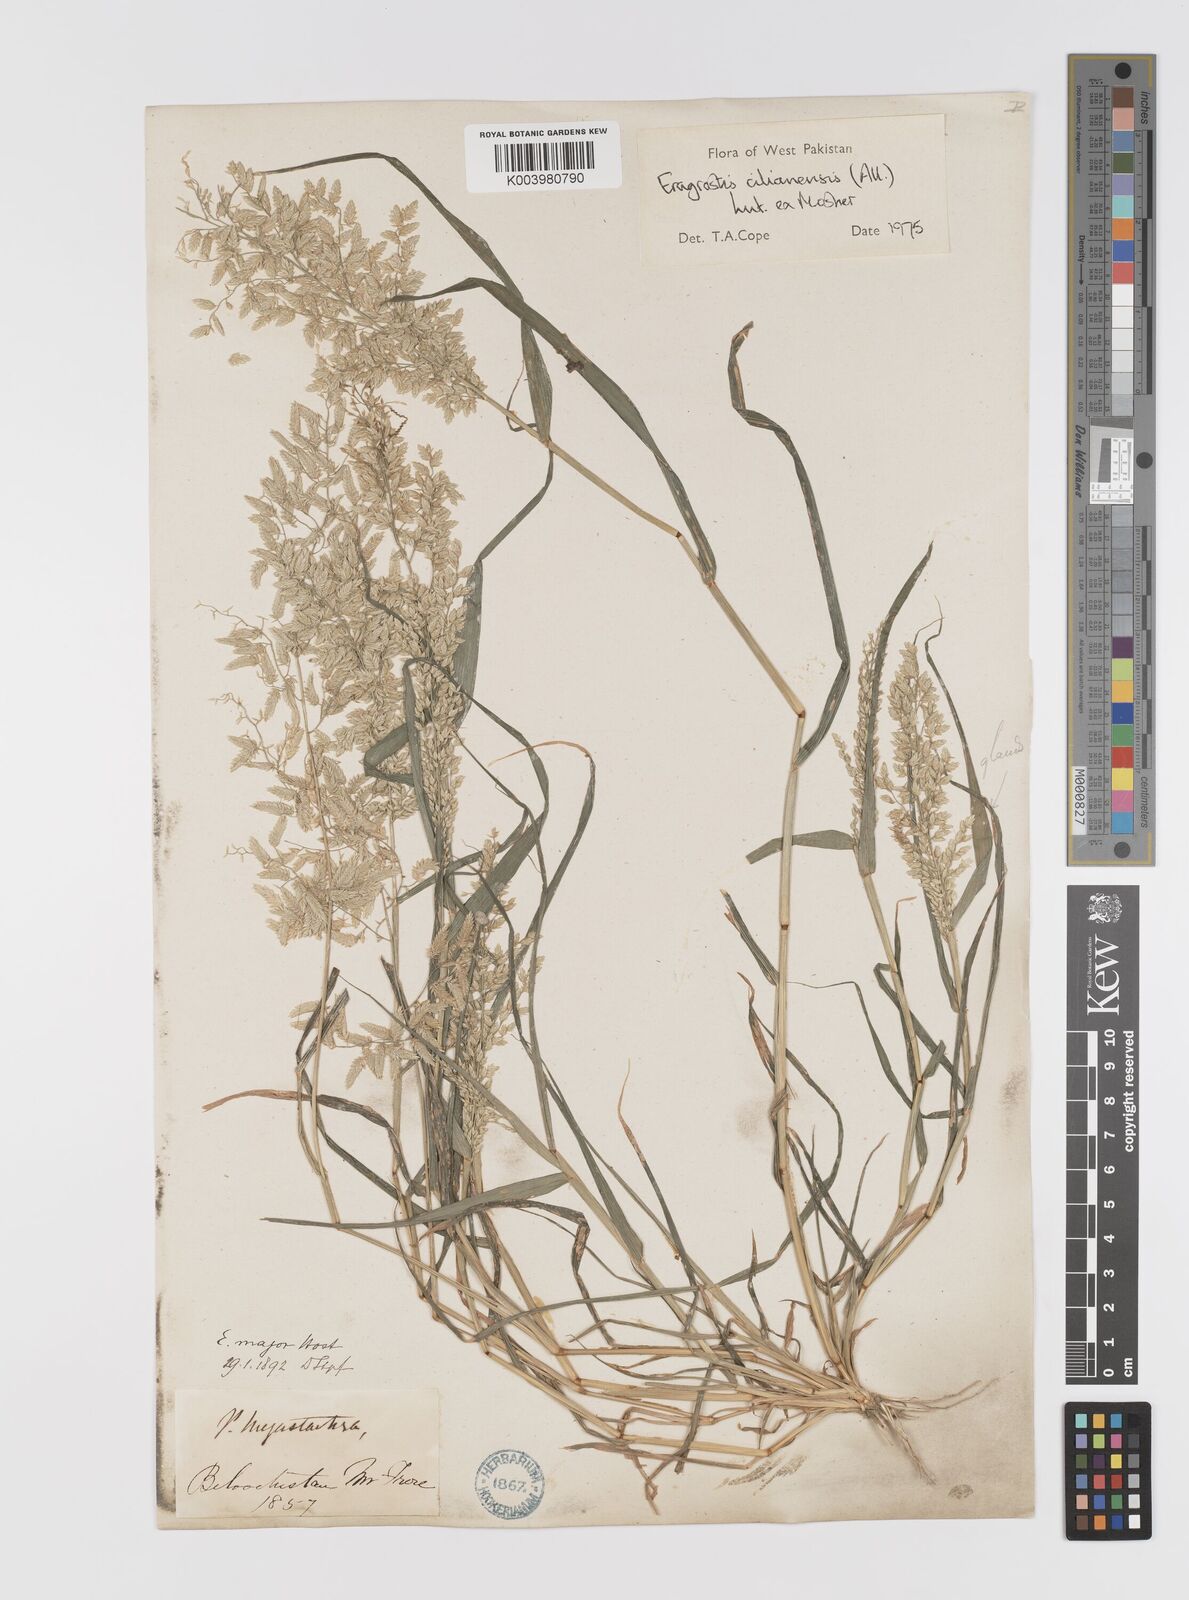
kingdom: Plantae
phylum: Tracheophyta
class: Liliopsida
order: Poales
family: Poaceae
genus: Eragrostis
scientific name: Eragrostis cilianensis
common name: Stinkgrass
